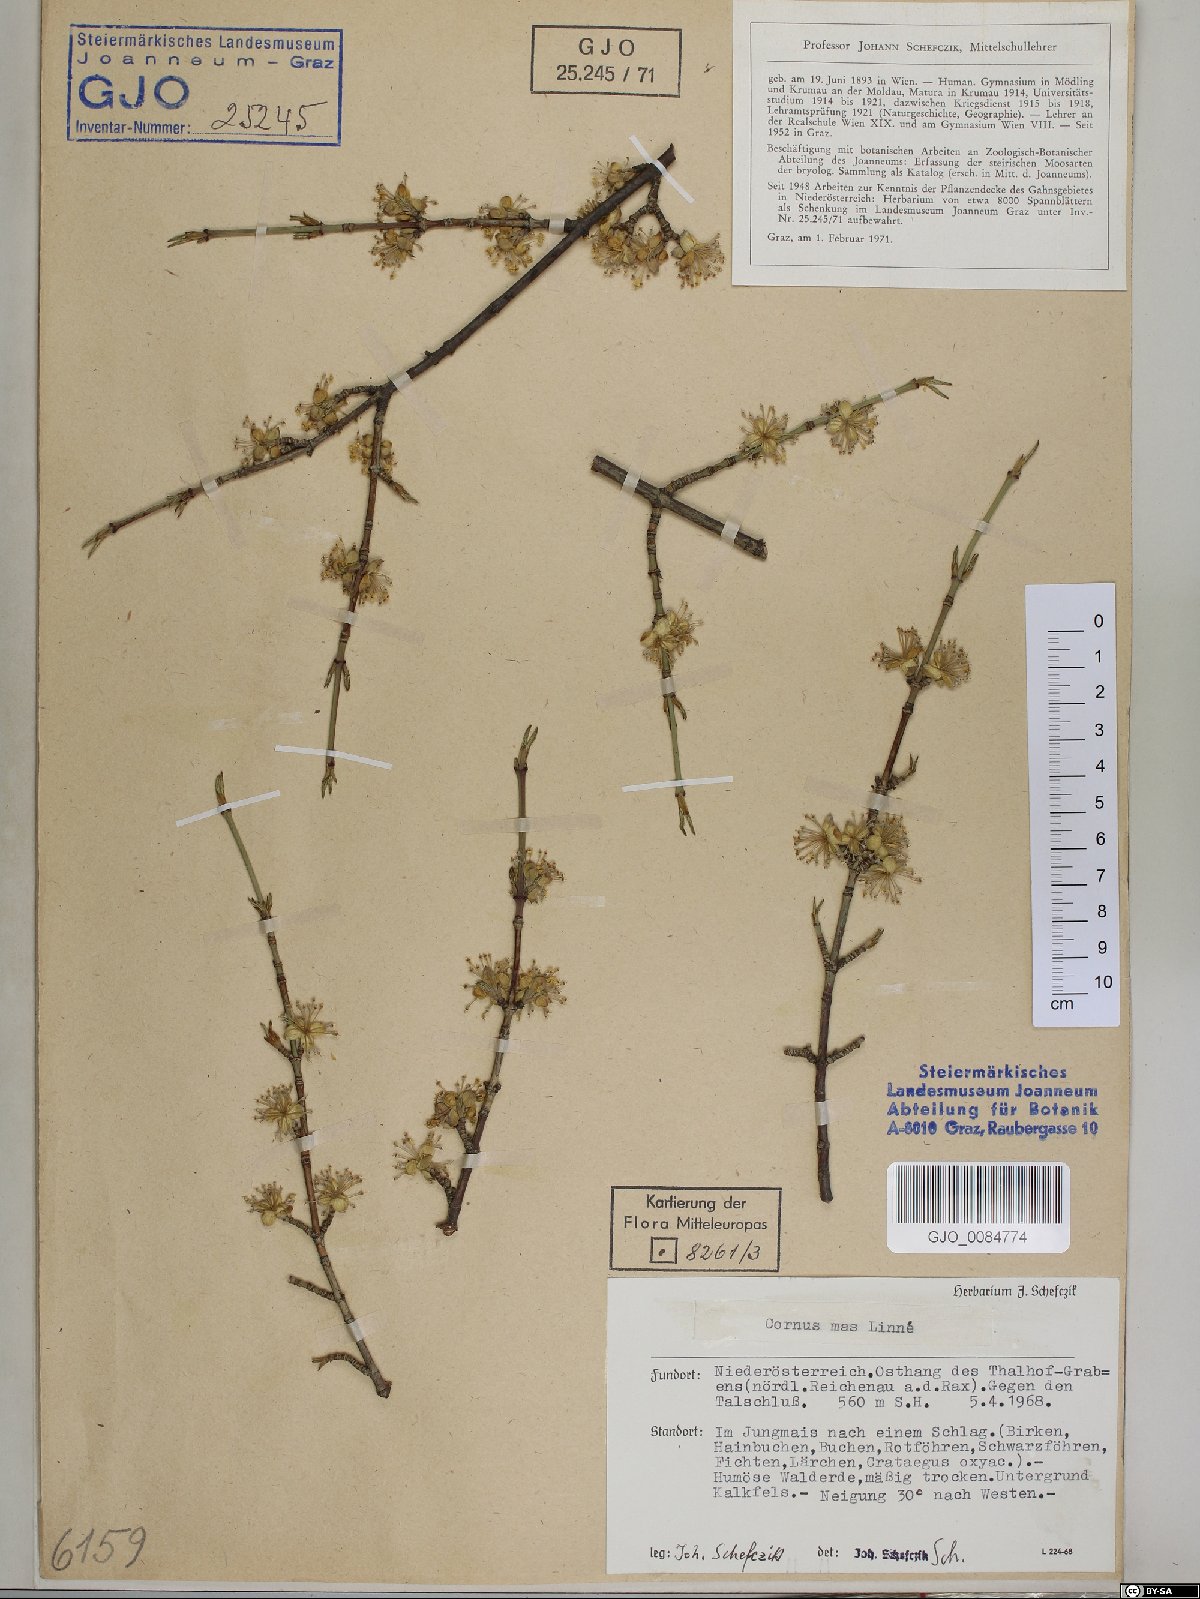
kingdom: Plantae
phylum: Tracheophyta
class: Magnoliopsida
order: Cornales
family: Cornaceae
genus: Cornus
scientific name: Cornus mas
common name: Cornelian-cherry
